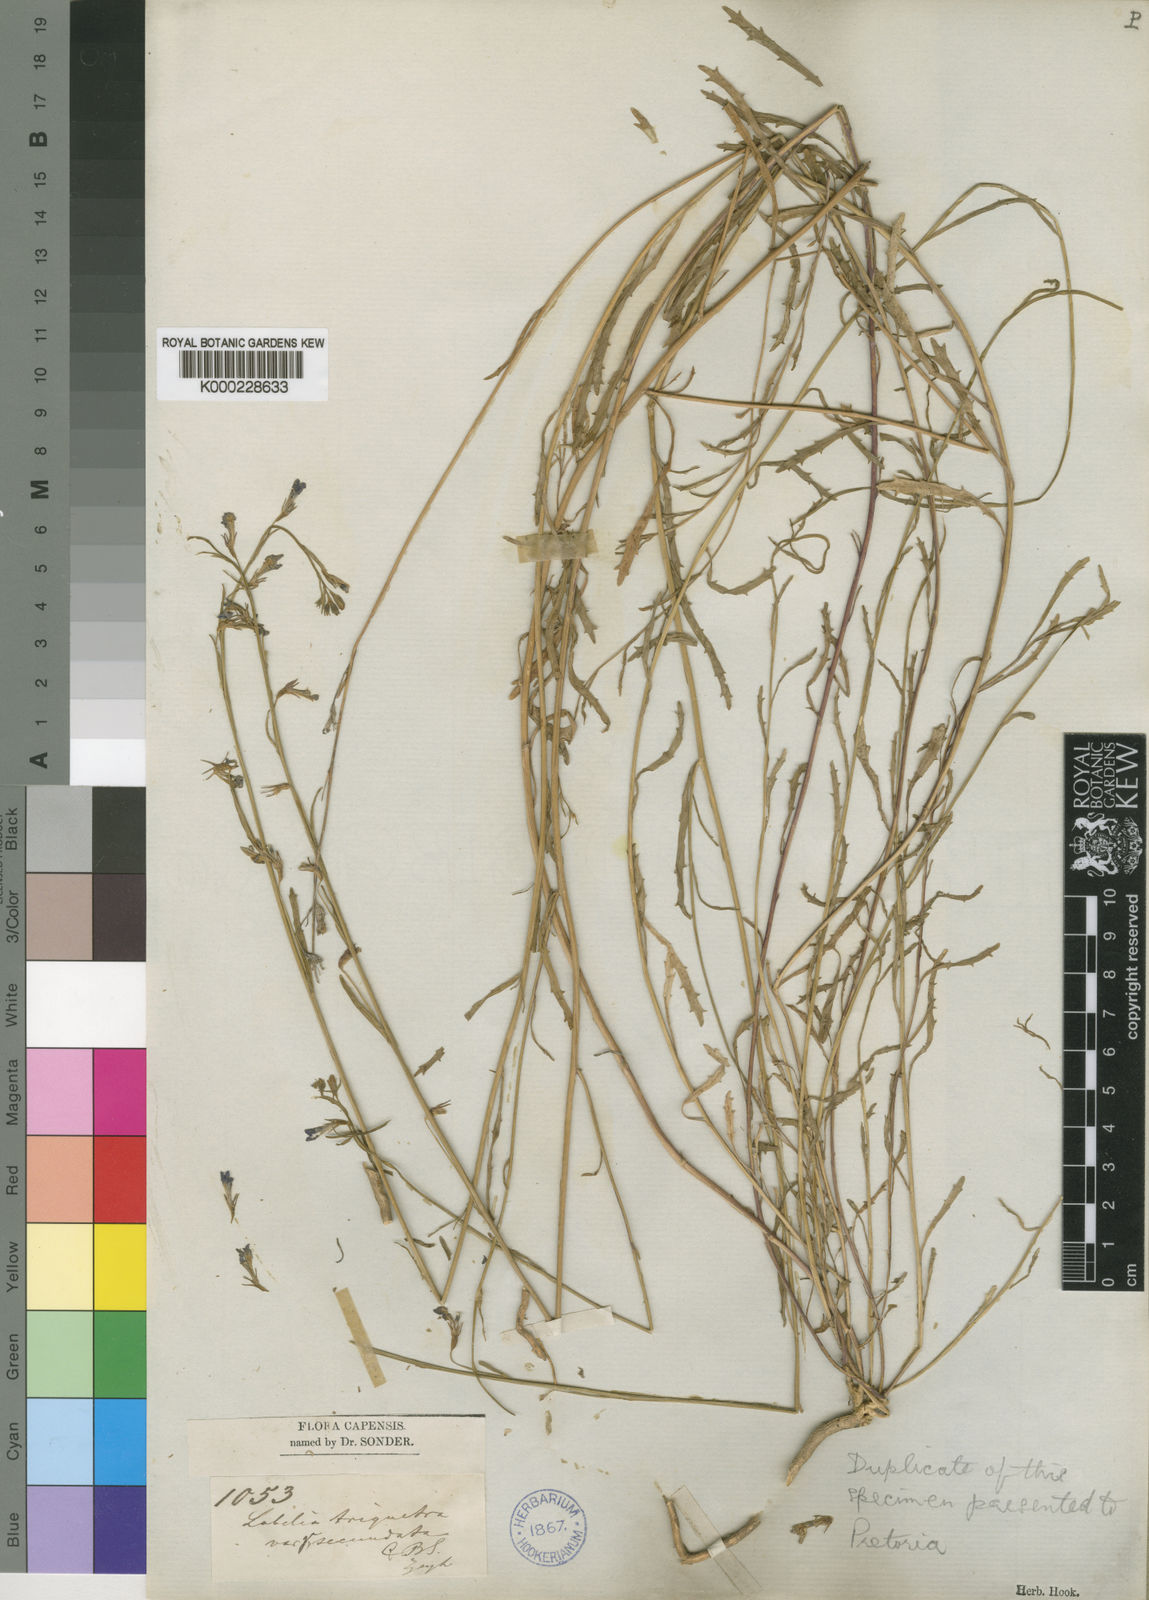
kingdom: Plantae
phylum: Tracheophyta
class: Magnoliopsida
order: Asterales
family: Campanulaceae
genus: Lobelia
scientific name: Lobelia comosa
